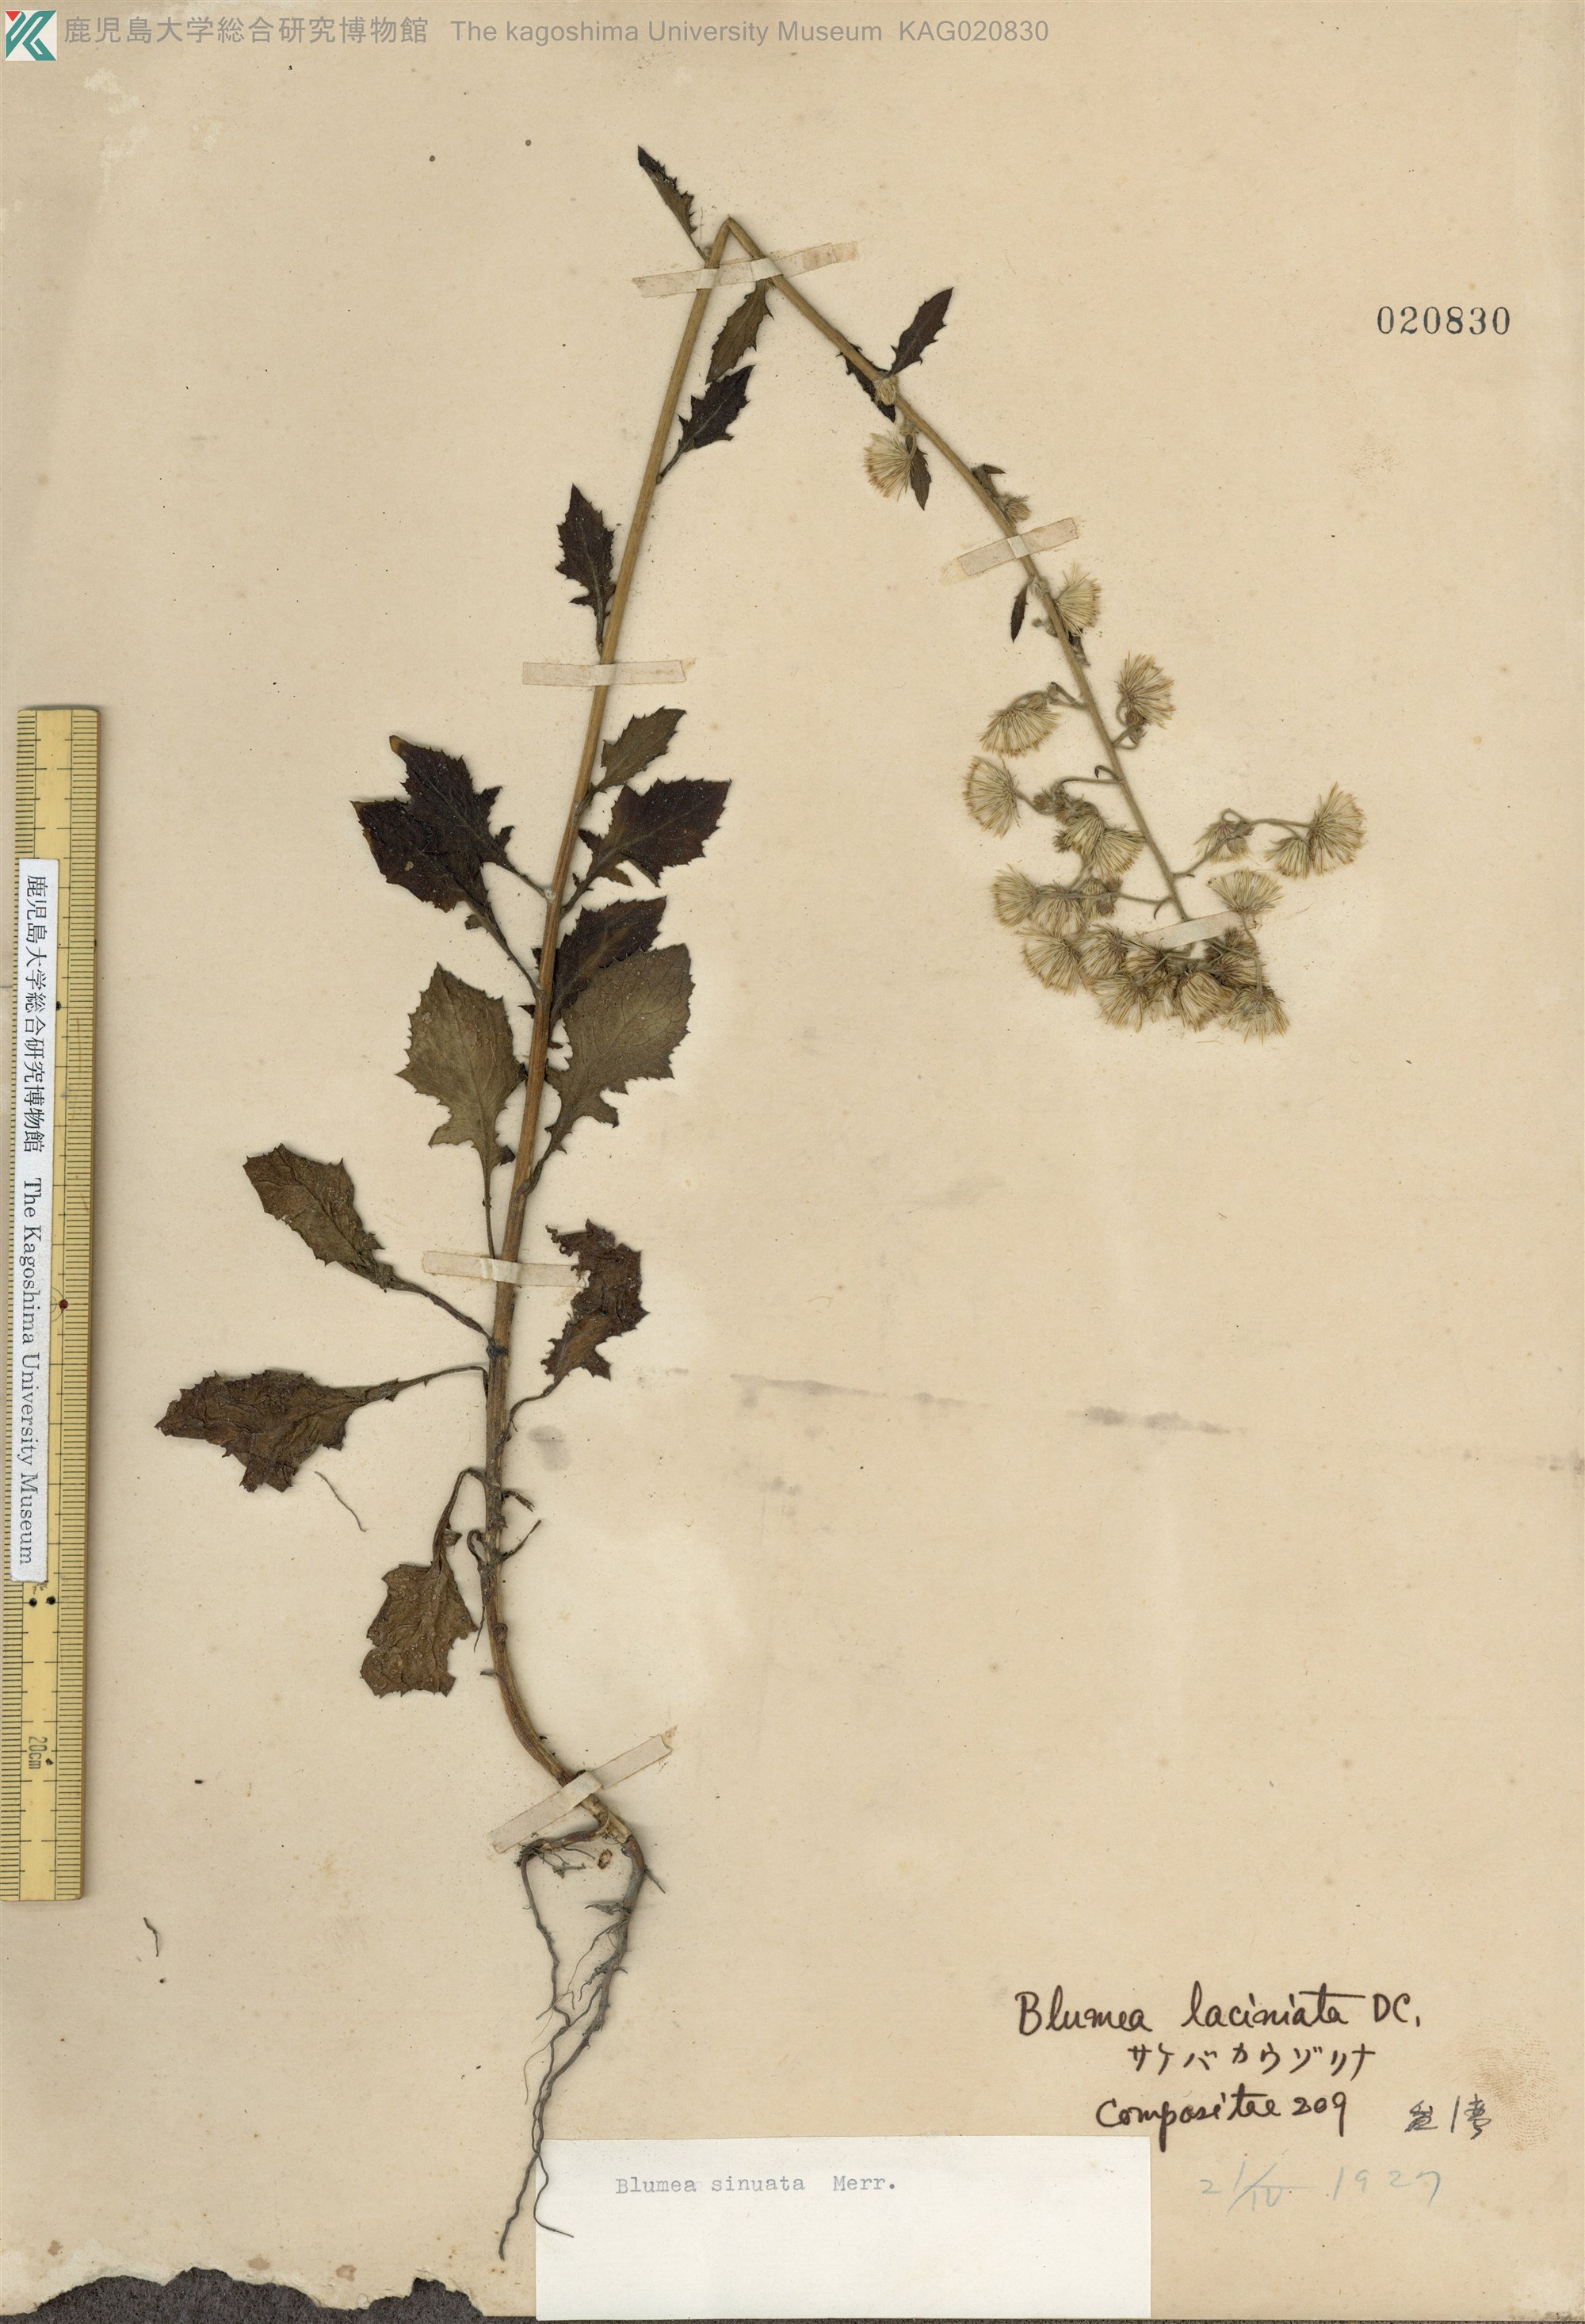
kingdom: Plantae
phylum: Tracheophyta
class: Magnoliopsida
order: Asterales
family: Asteraceae
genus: Blumea
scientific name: Blumea sinuata
